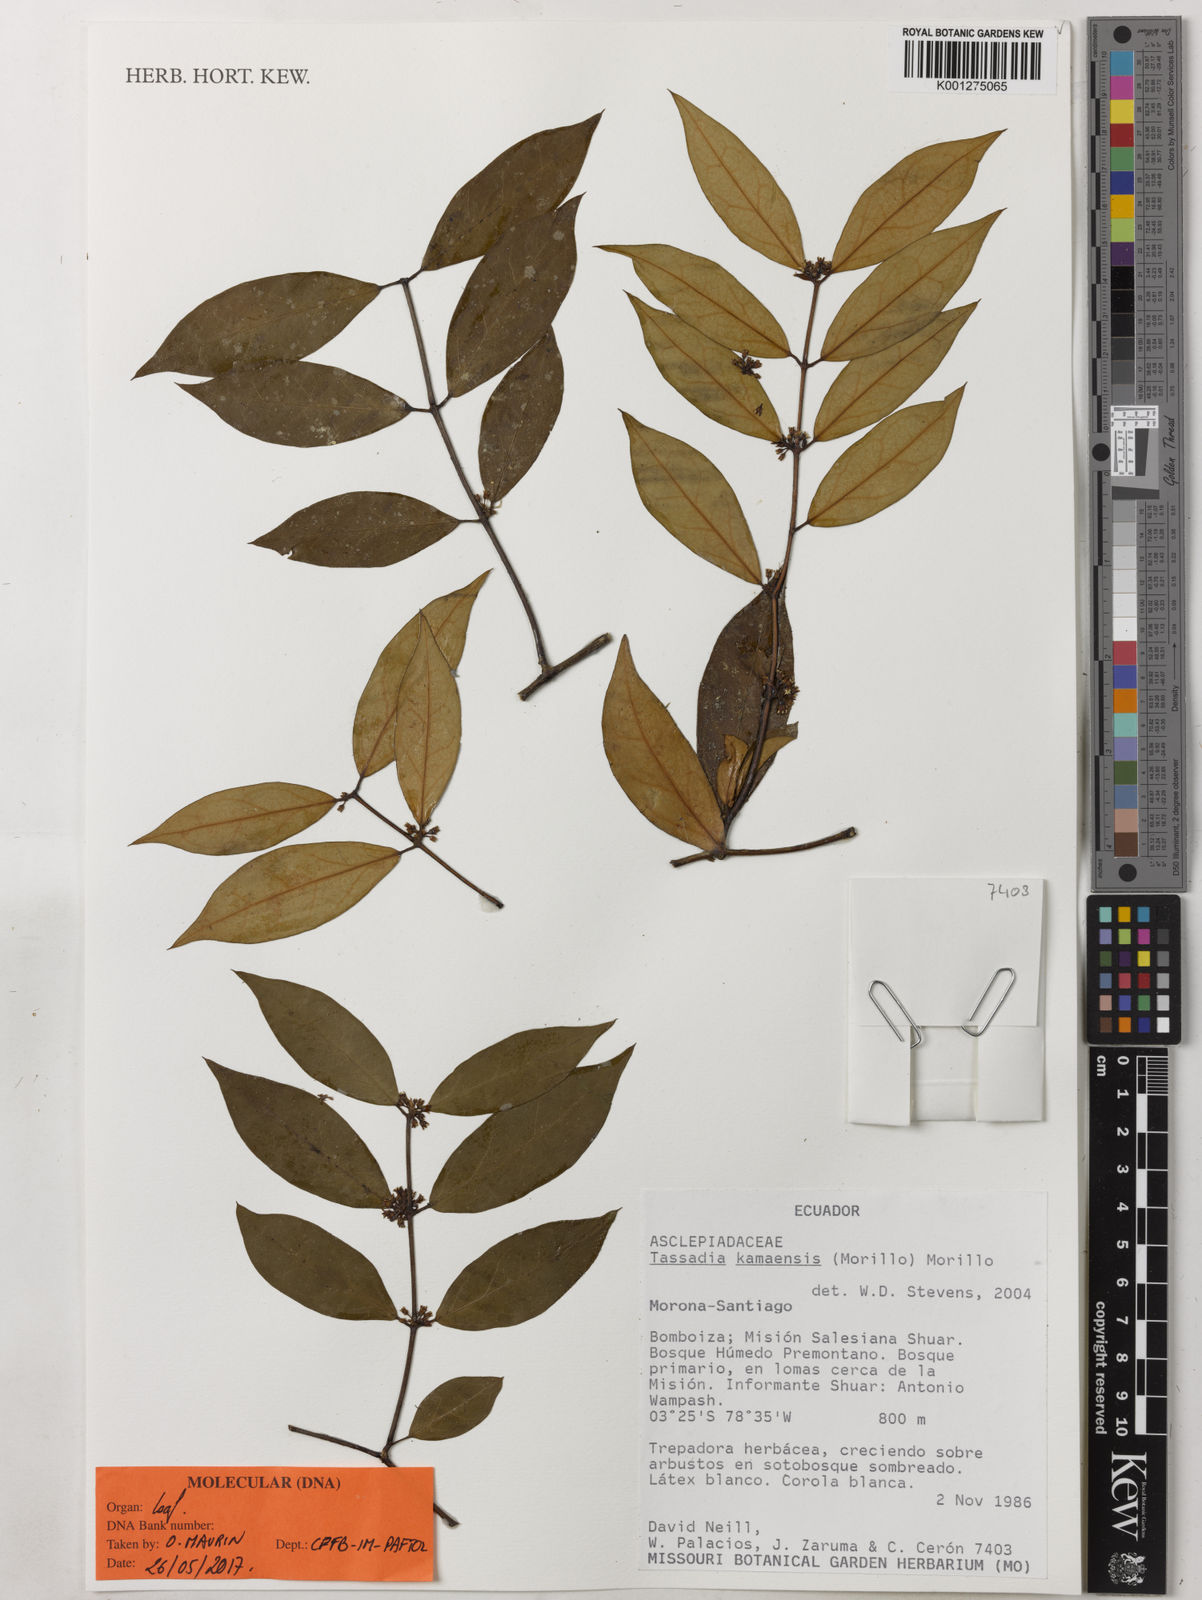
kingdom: Plantae
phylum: Tracheophyta
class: Magnoliopsida
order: Gentianales
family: Apocynaceae
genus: Tassadia
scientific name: Tassadia kamaensis
